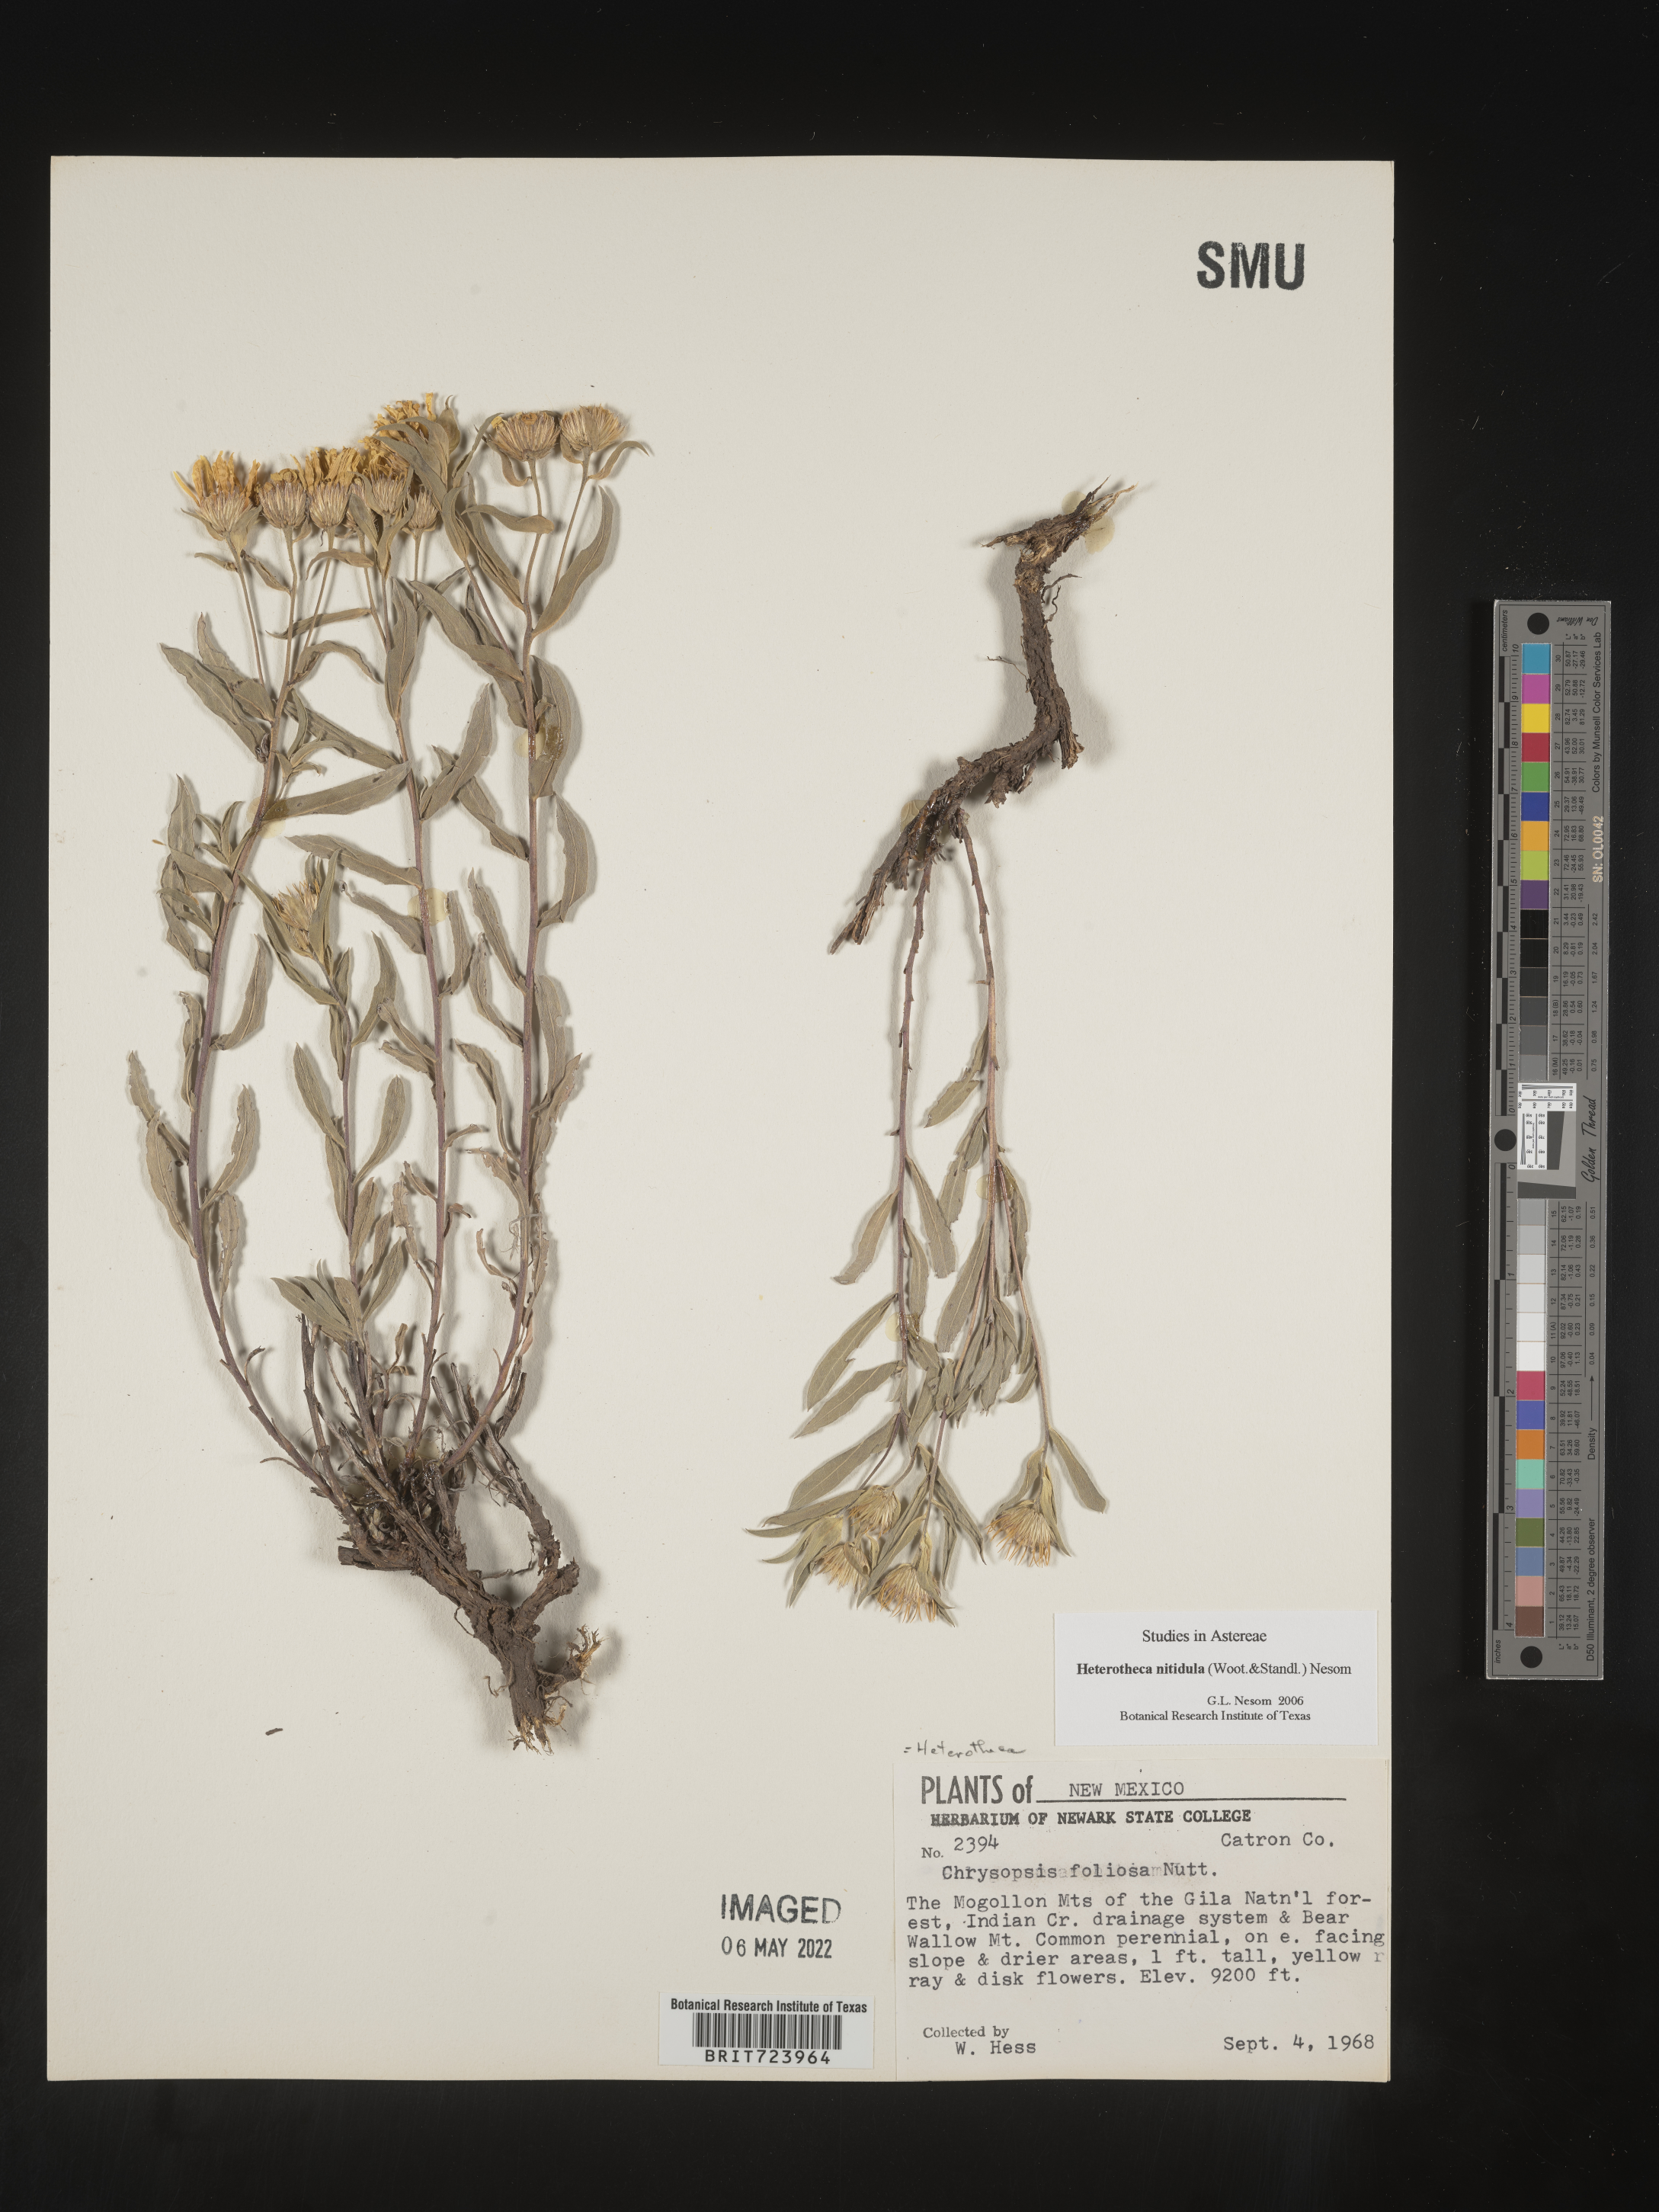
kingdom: Plantae
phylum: Tracheophyta
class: Magnoliopsida
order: Asterales
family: Asteraceae
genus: Heterotheca
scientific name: Heterotheca nitidula
